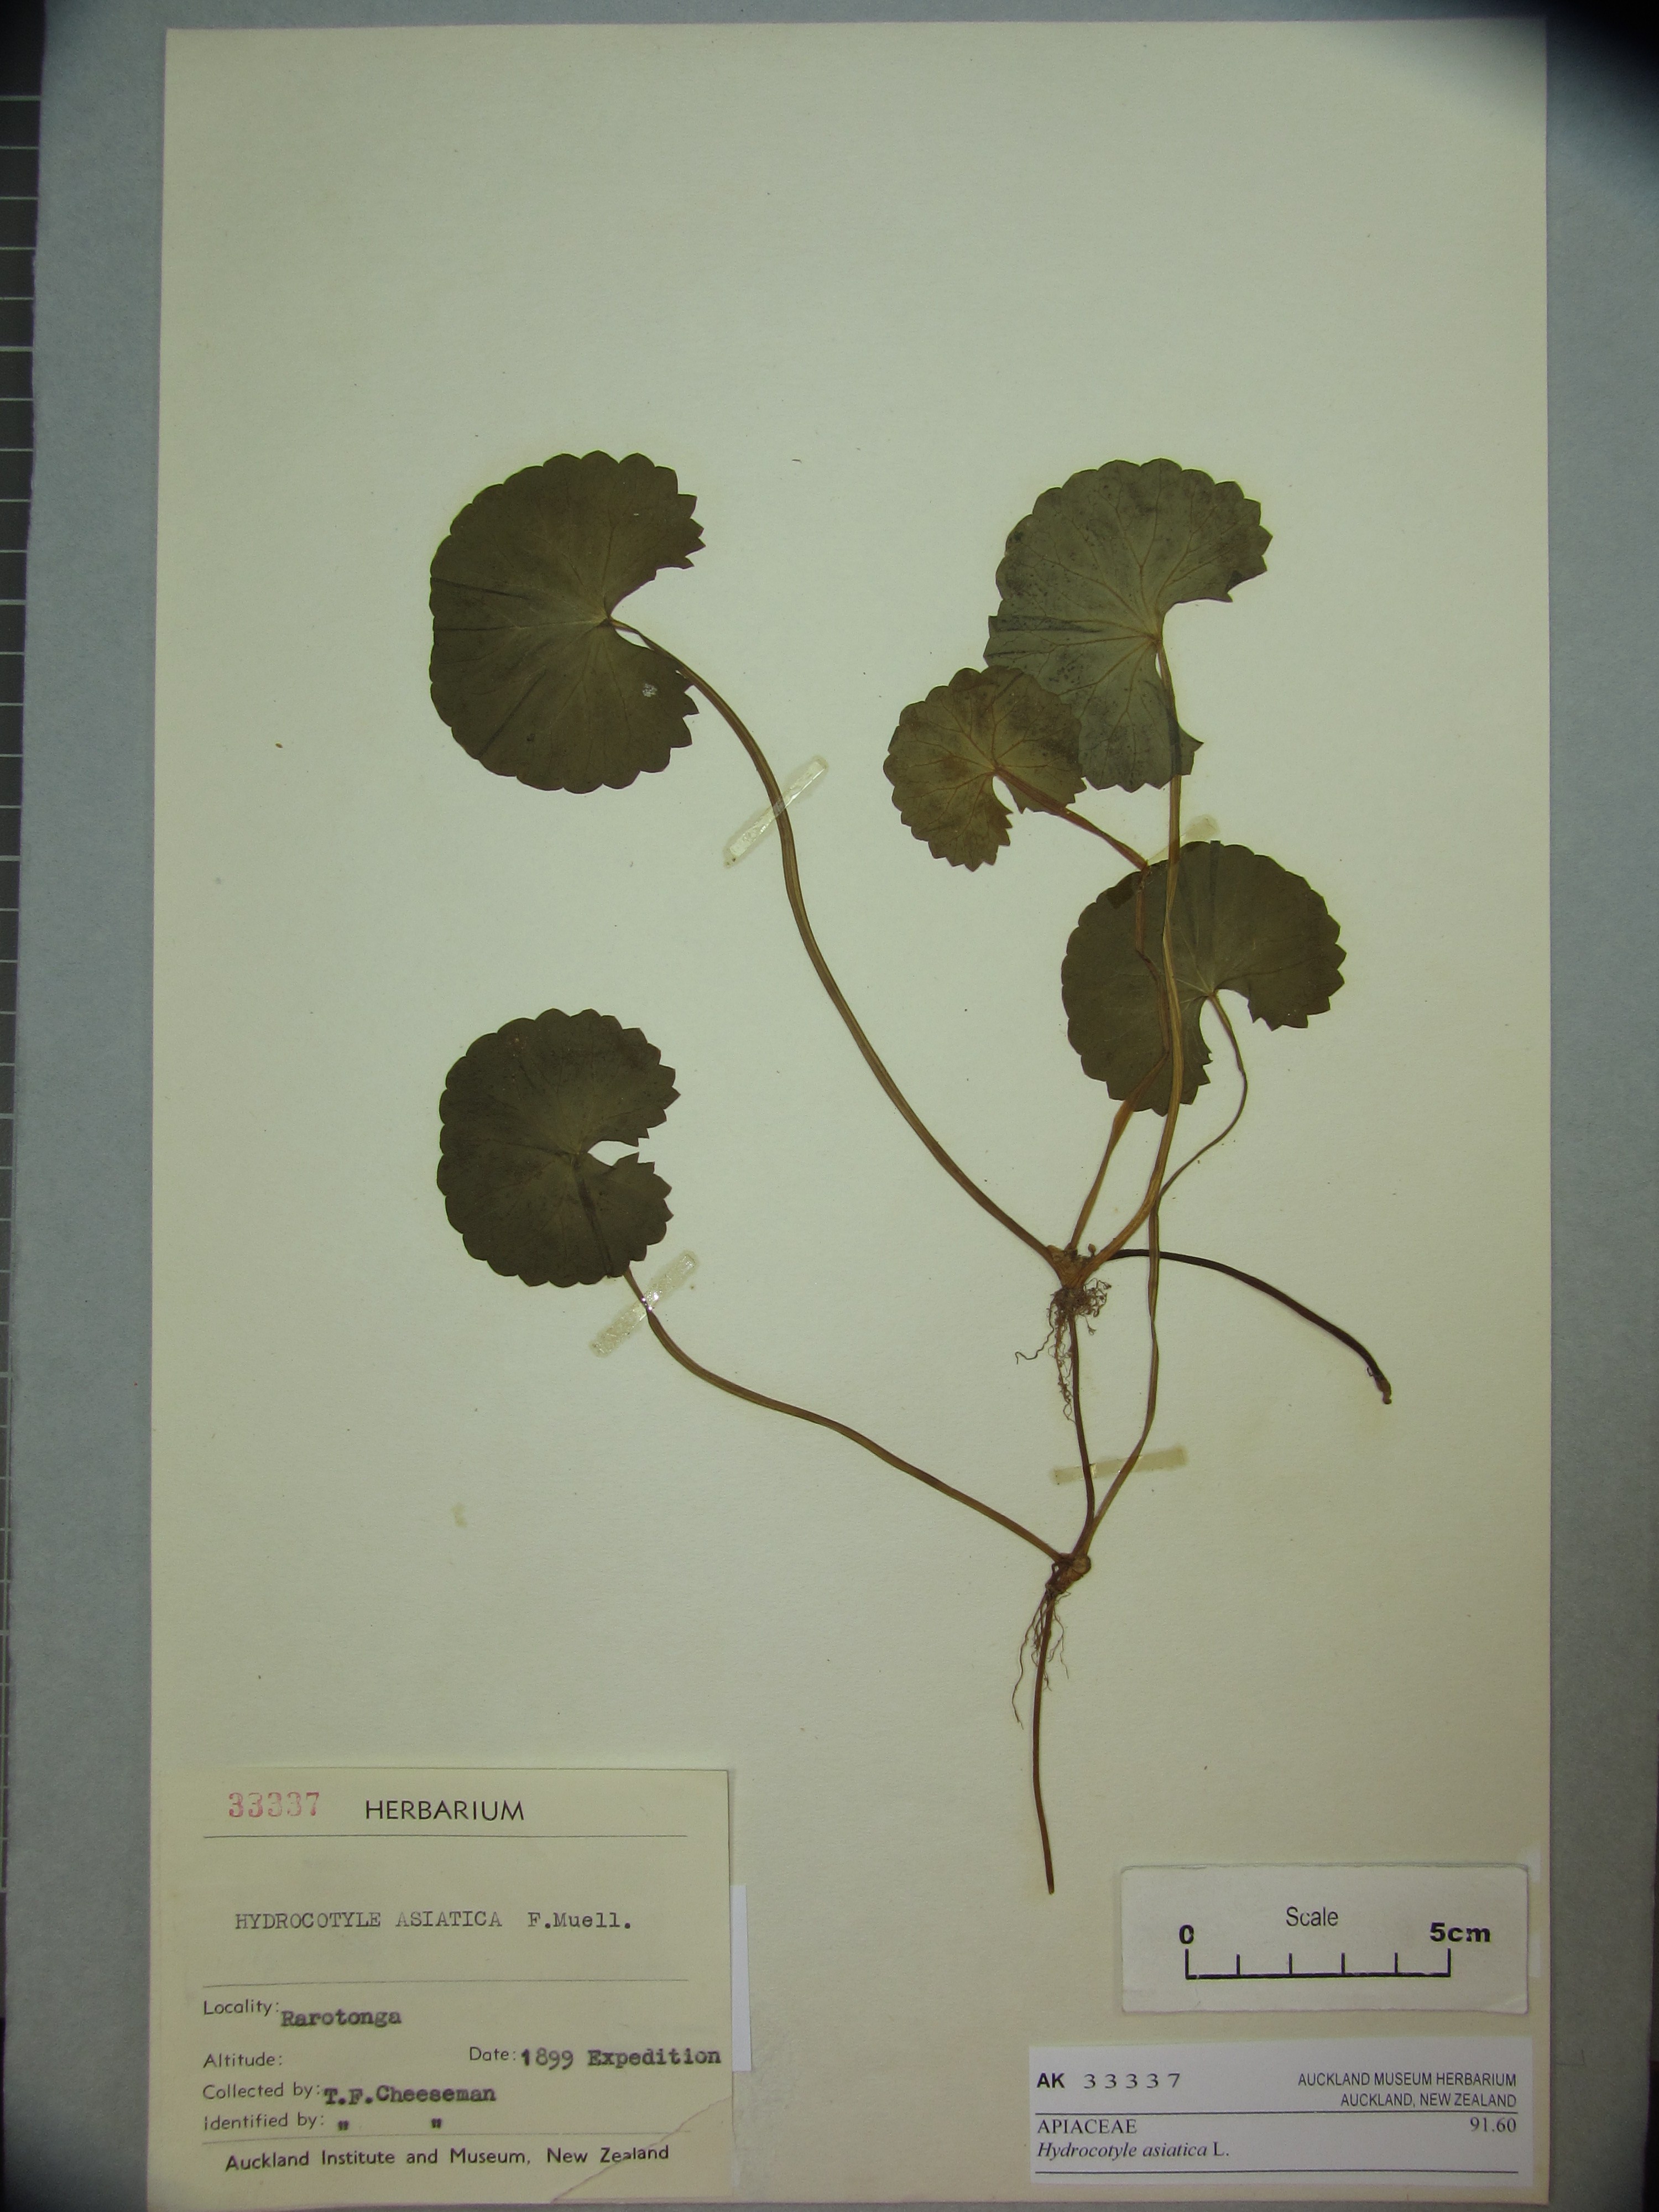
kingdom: Plantae
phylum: Tracheophyta
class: Magnoliopsida
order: Apiales
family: Apiaceae
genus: Centella
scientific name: Centella asiatica
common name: Spadeleaf
